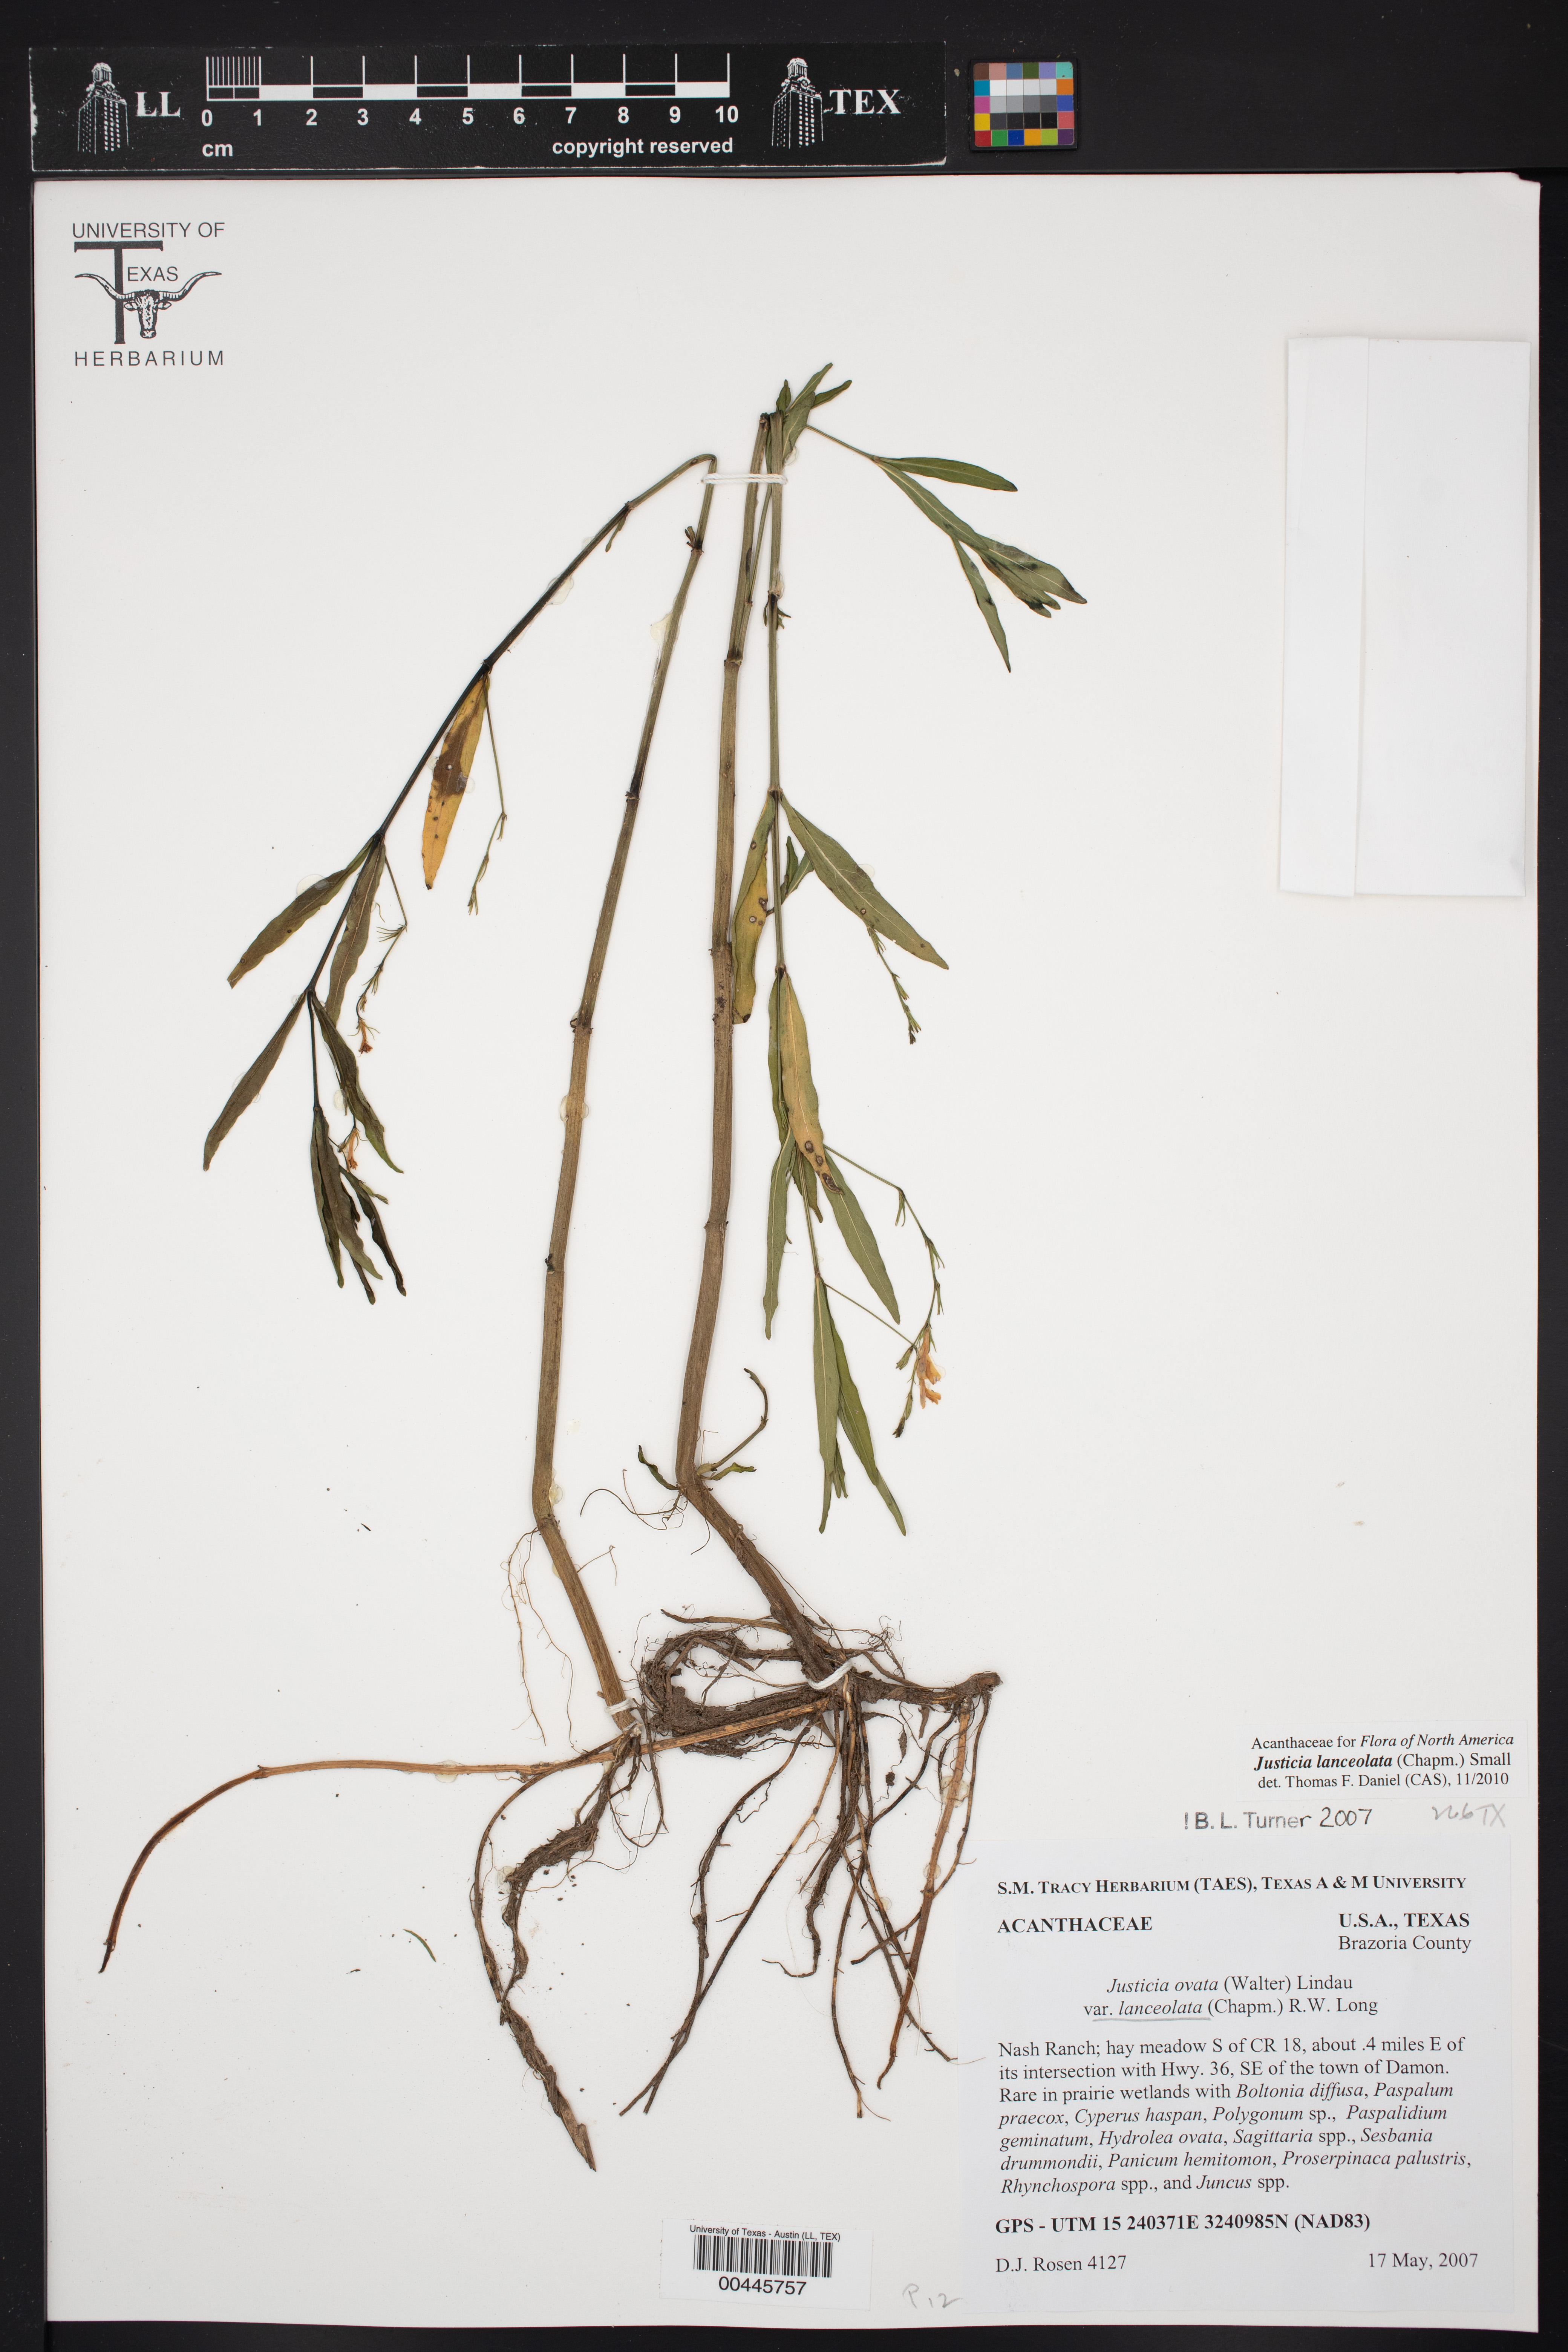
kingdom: Plantae
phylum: Tracheophyta
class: Magnoliopsida
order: Lamiales
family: Acanthaceae
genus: Justicia
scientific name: Justicia lanceolata
